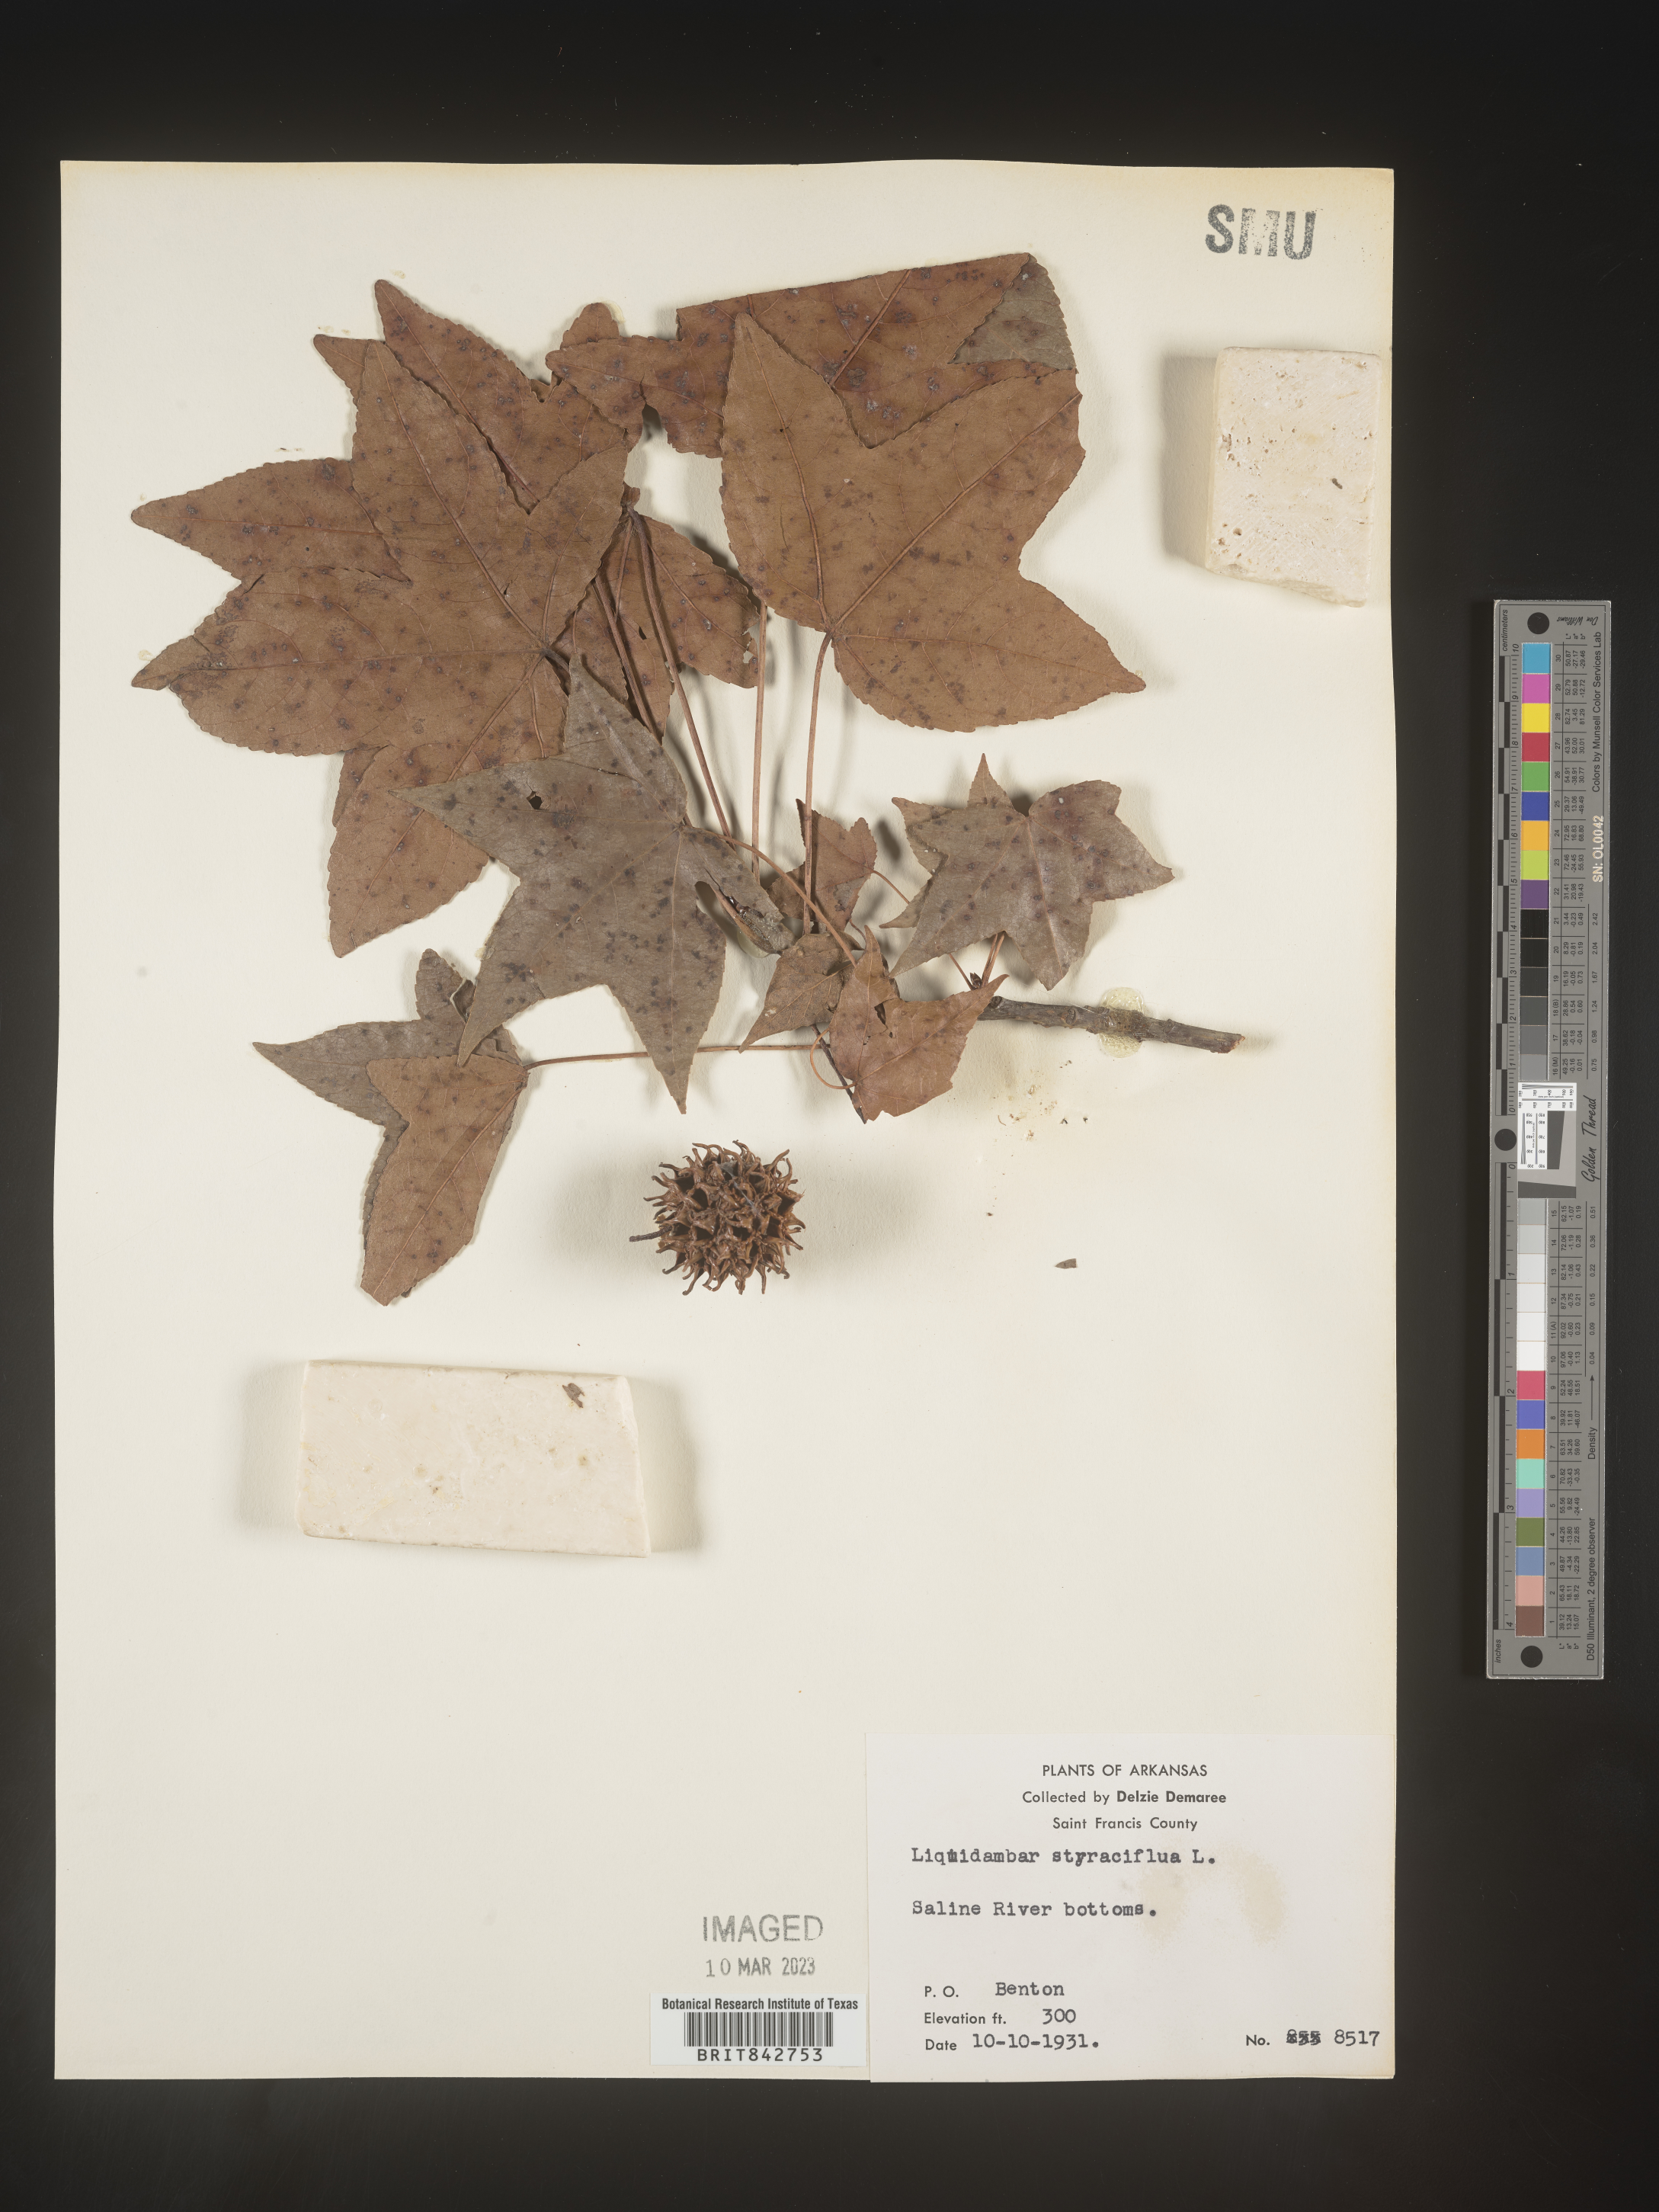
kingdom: Plantae
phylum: Tracheophyta
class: Magnoliopsida
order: Saxifragales
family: Altingiaceae
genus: Liquidambar
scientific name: Liquidambar styraciflua
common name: Sweet gum
